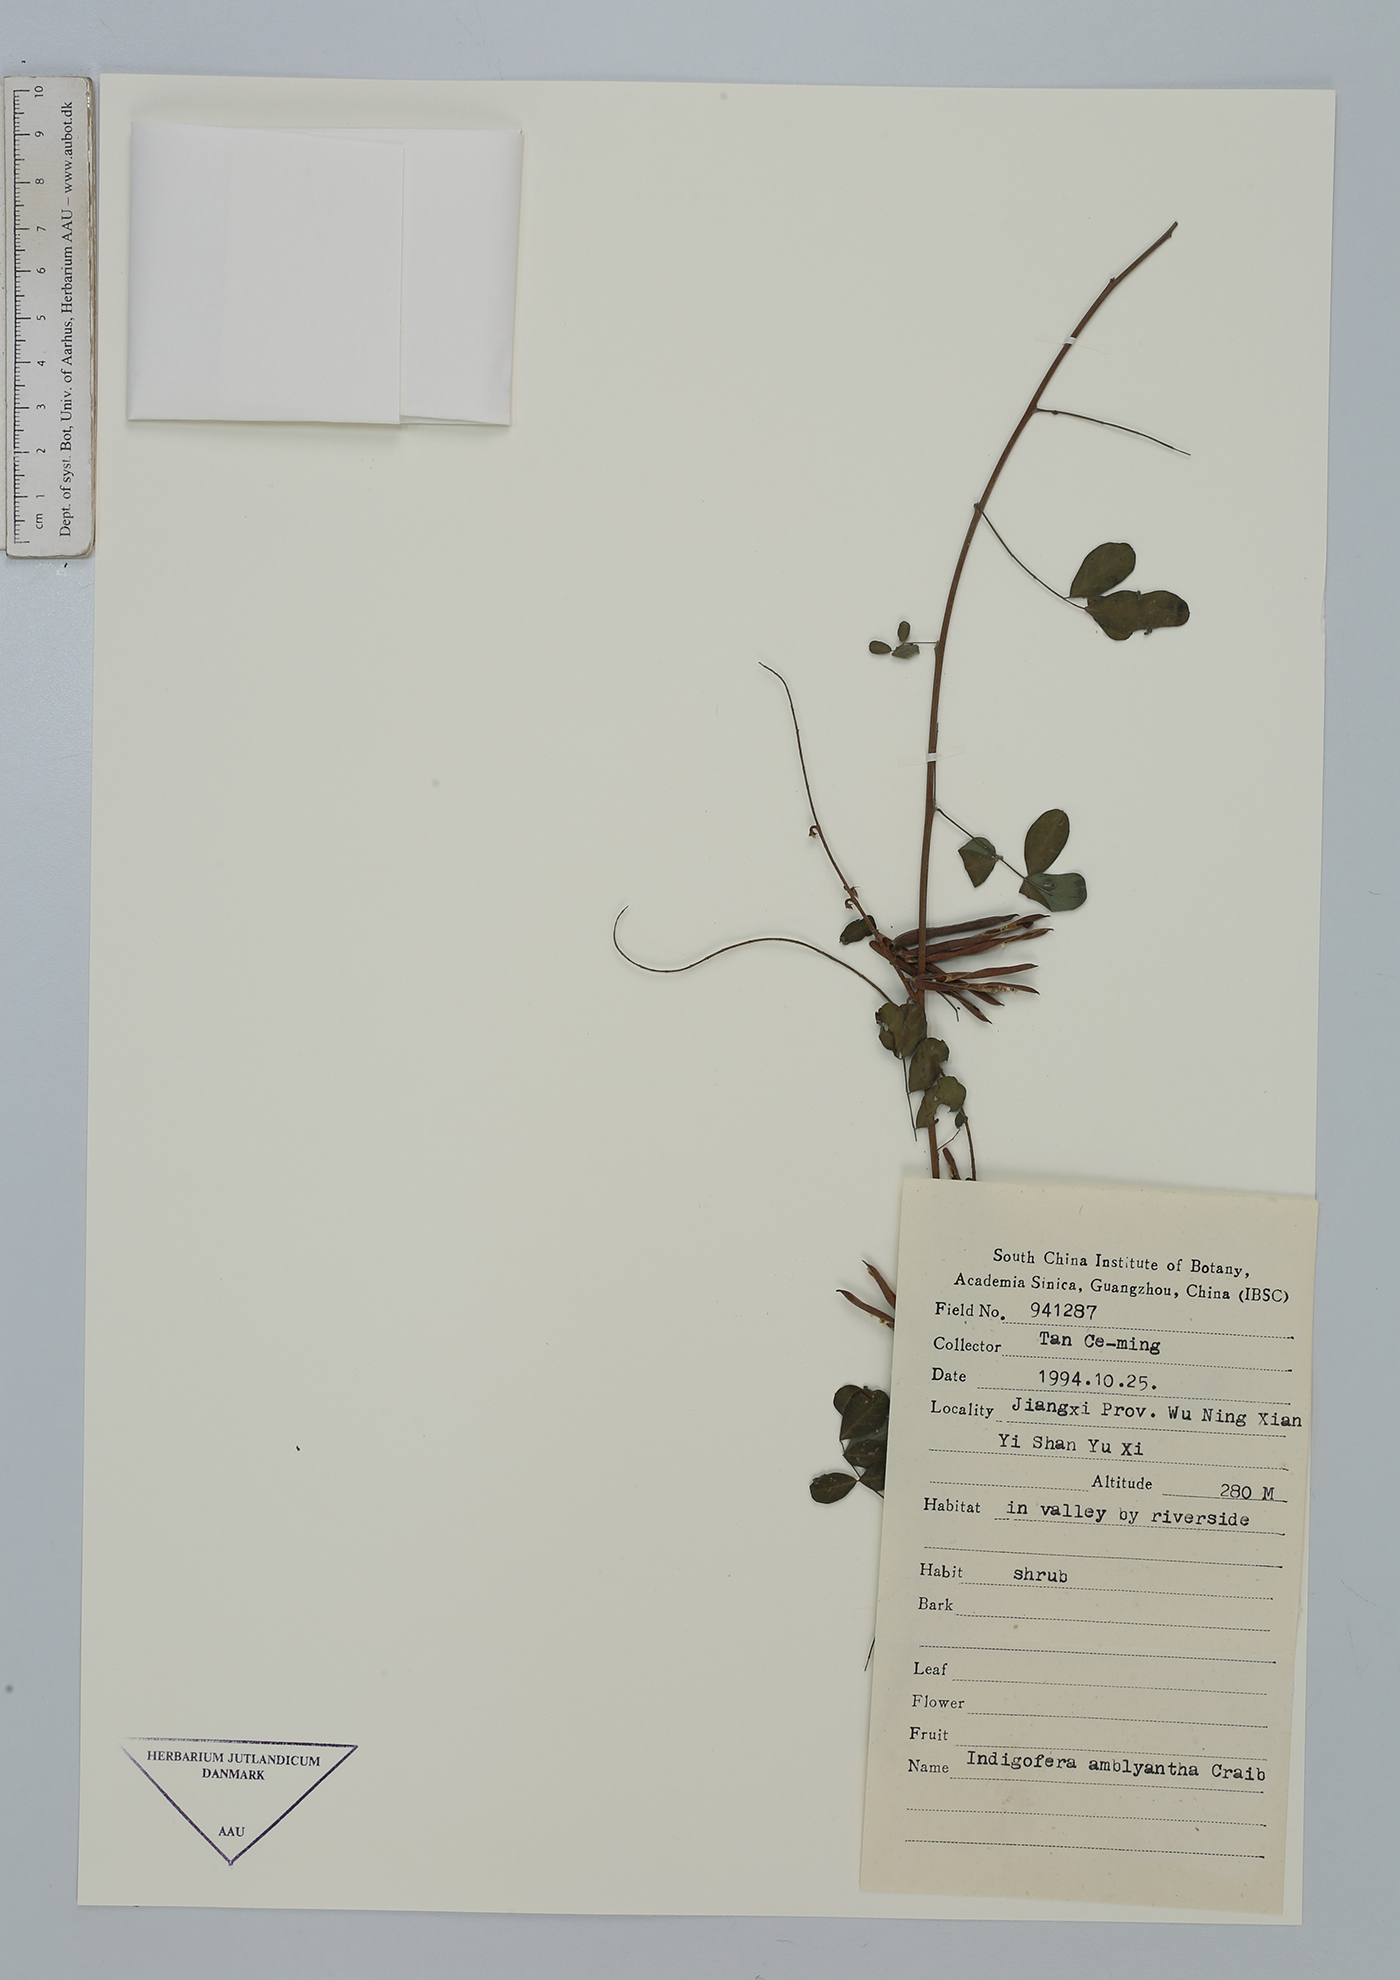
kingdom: Plantae
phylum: Tracheophyta
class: Magnoliopsida
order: Fabales
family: Fabaceae
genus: Indigofera
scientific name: Indigofera amblyantha
